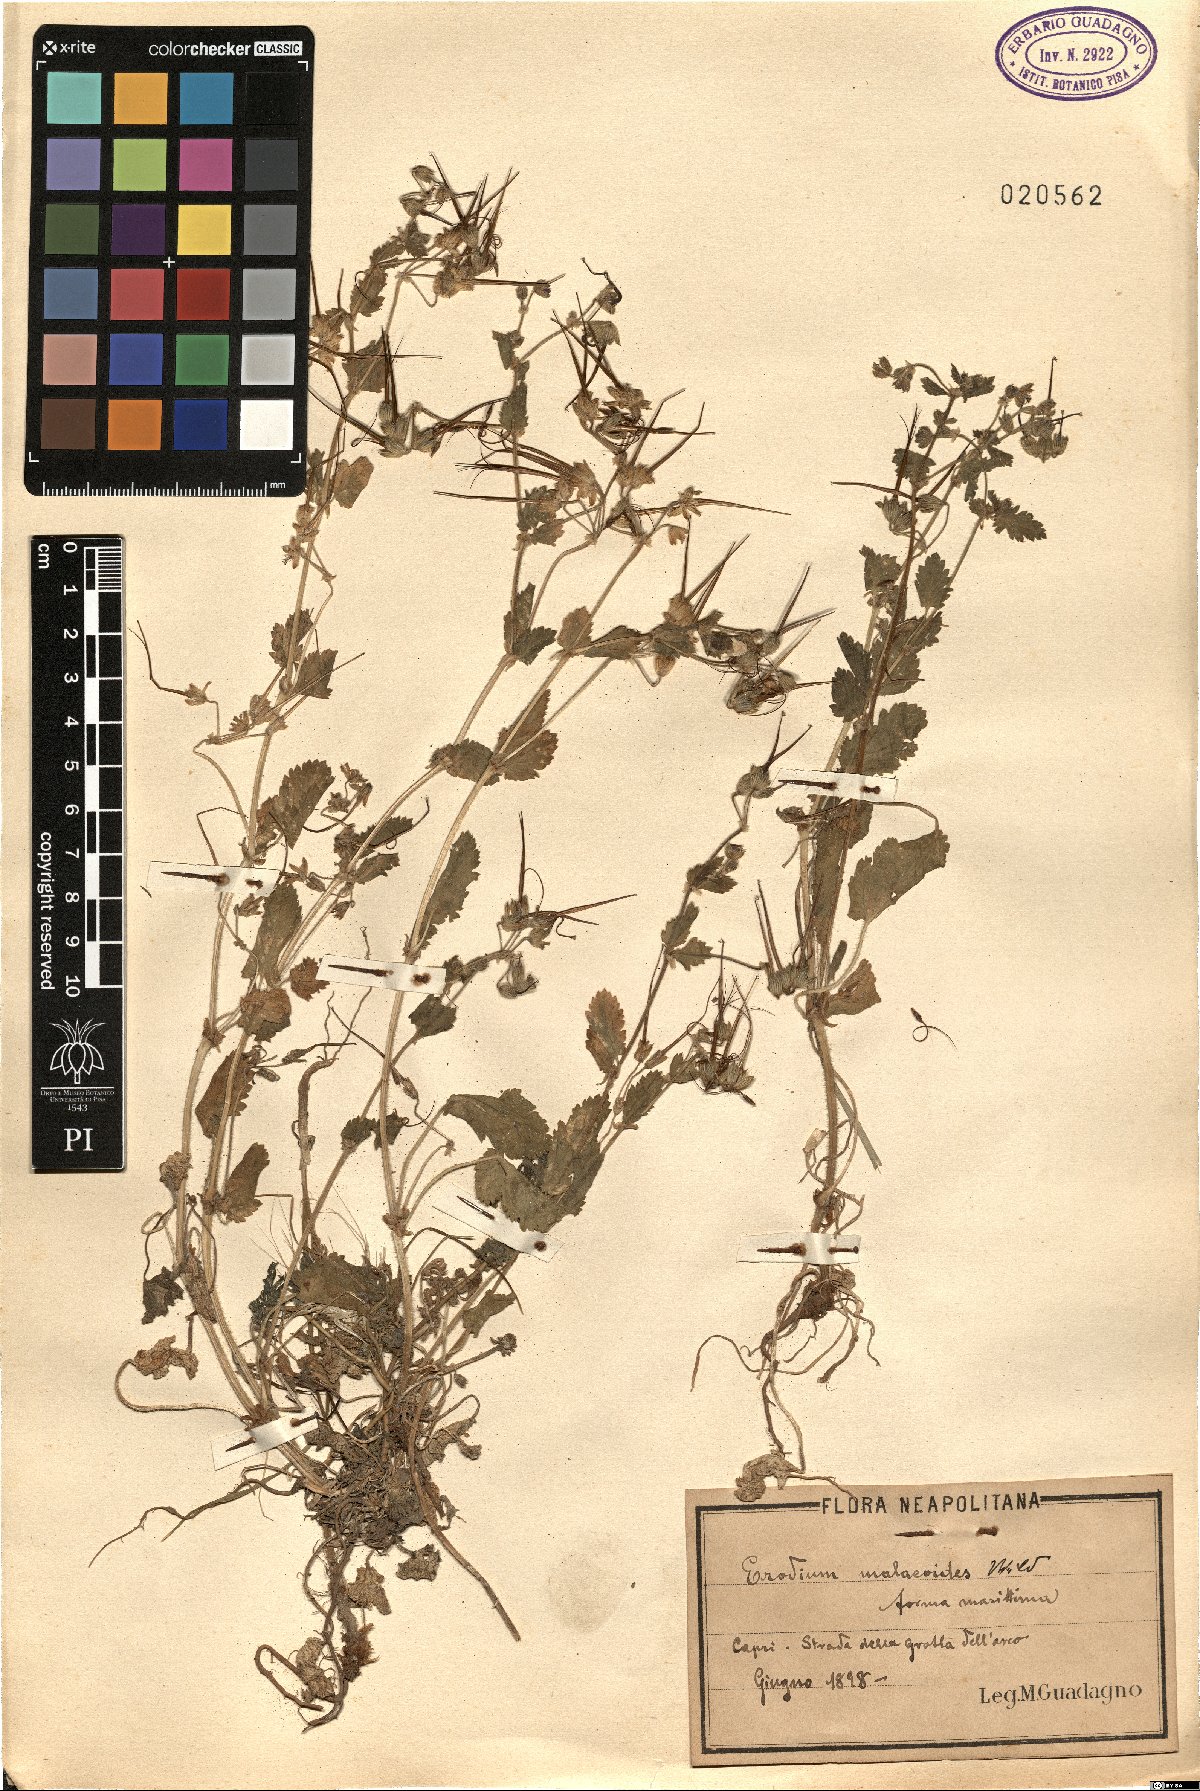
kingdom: Plantae
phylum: Tracheophyta
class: Magnoliopsida
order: Geraniales
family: Geraniaceae
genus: Erodium
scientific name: Erodium malacoides
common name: Soft stork's-bill
